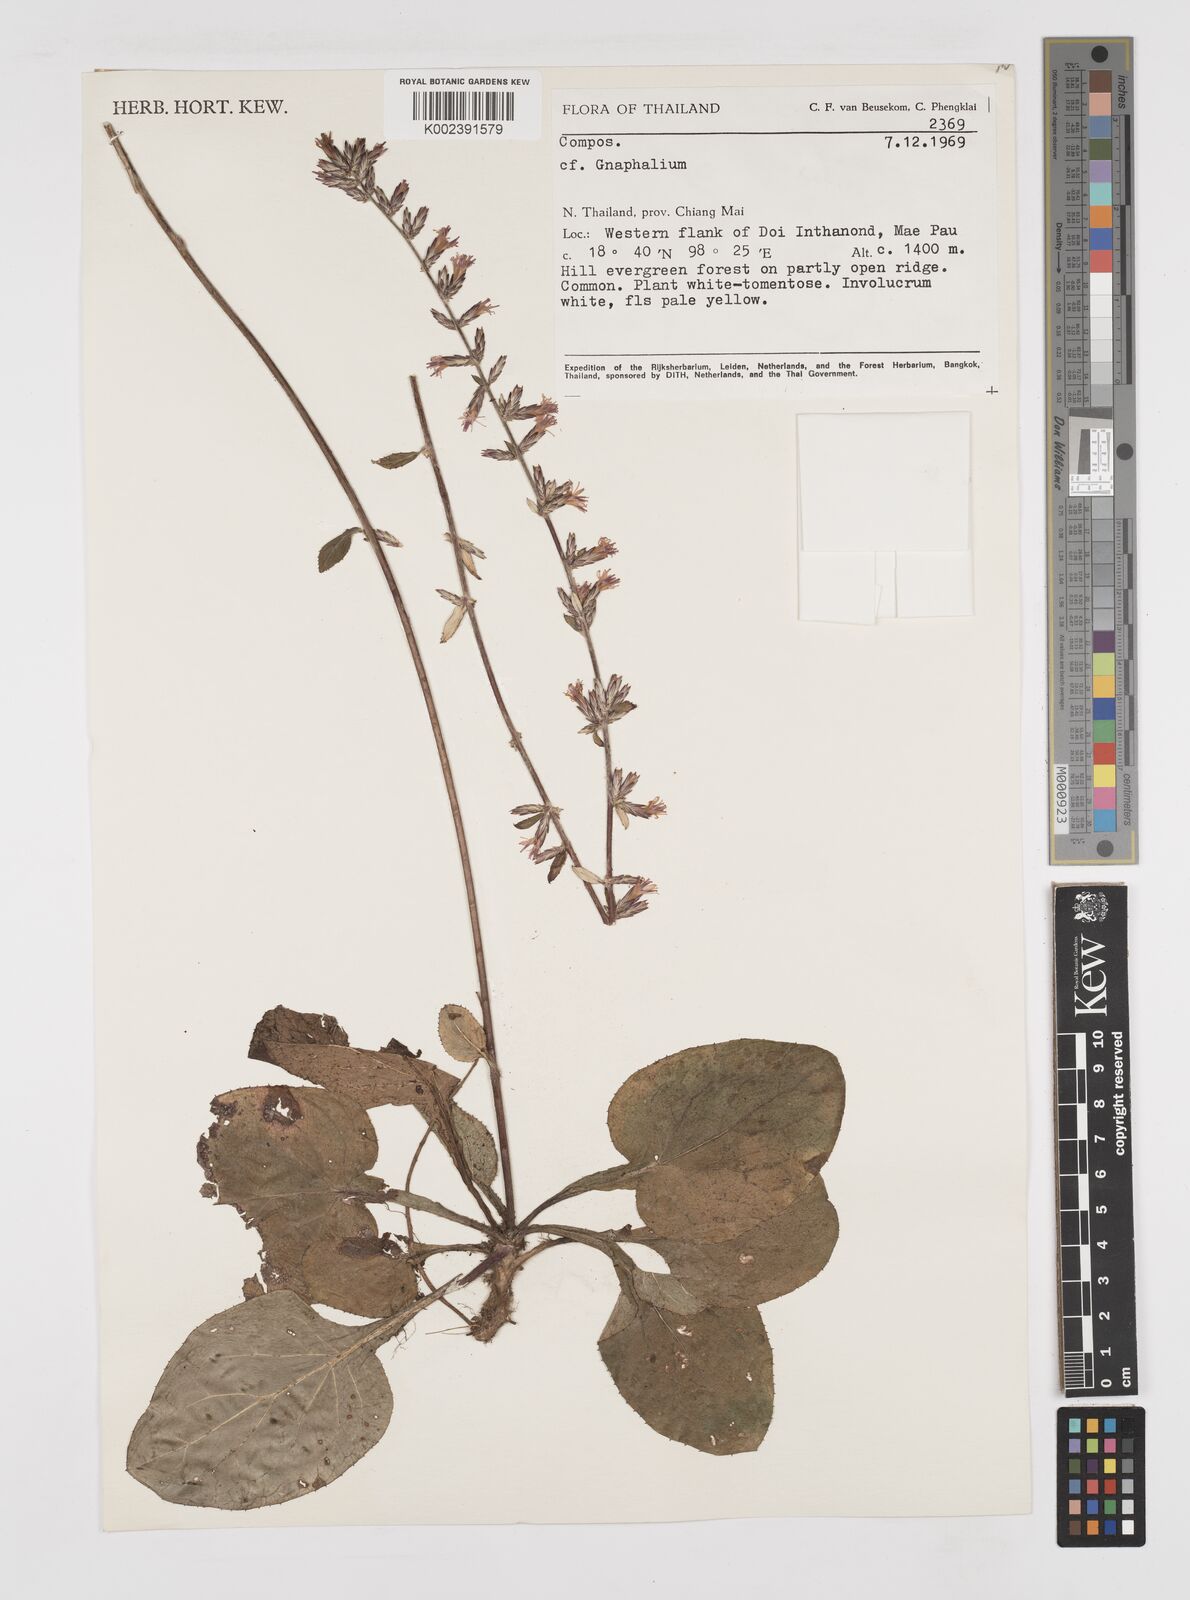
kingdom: Plantae
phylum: Tracheophyta
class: Magnoliopsida
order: Asterales
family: Asteraceae
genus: Gnaphalium
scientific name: Gnaphalium
